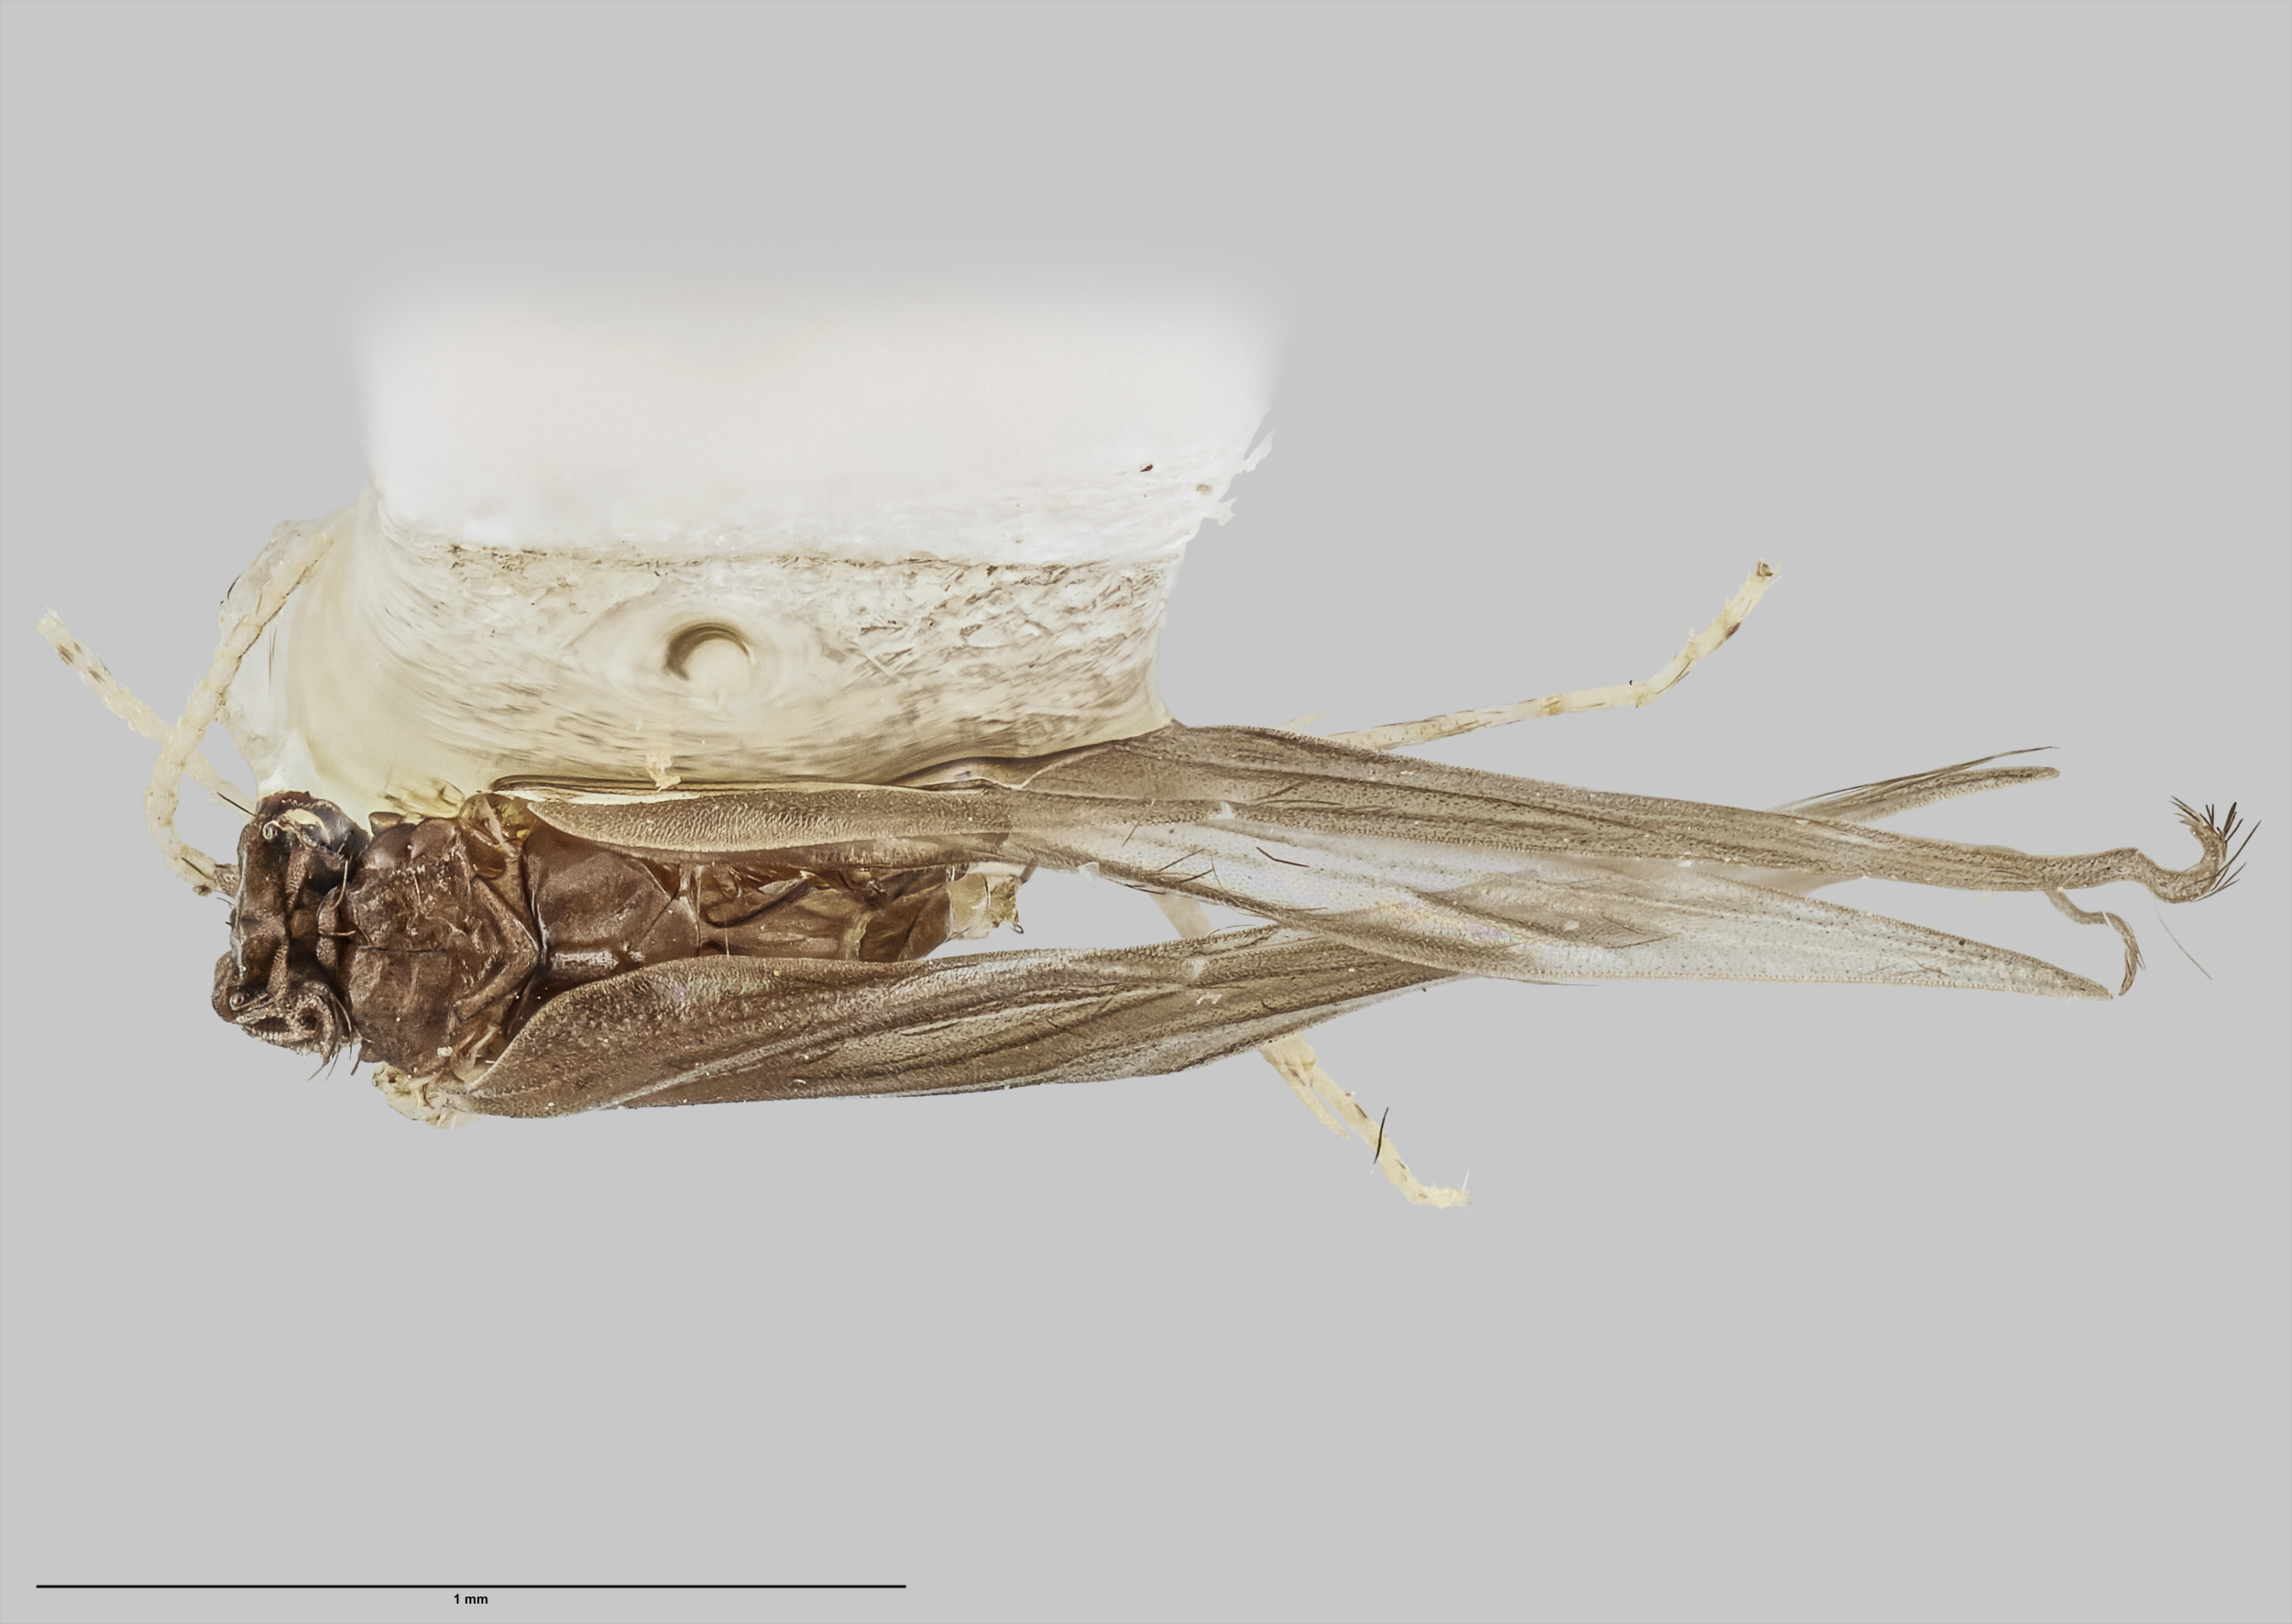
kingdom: Animalia
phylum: Arthropoda
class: Insecta
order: Trichoptera
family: Hydroptilidae
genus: Oxyethira
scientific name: Oxyethira ahipara
